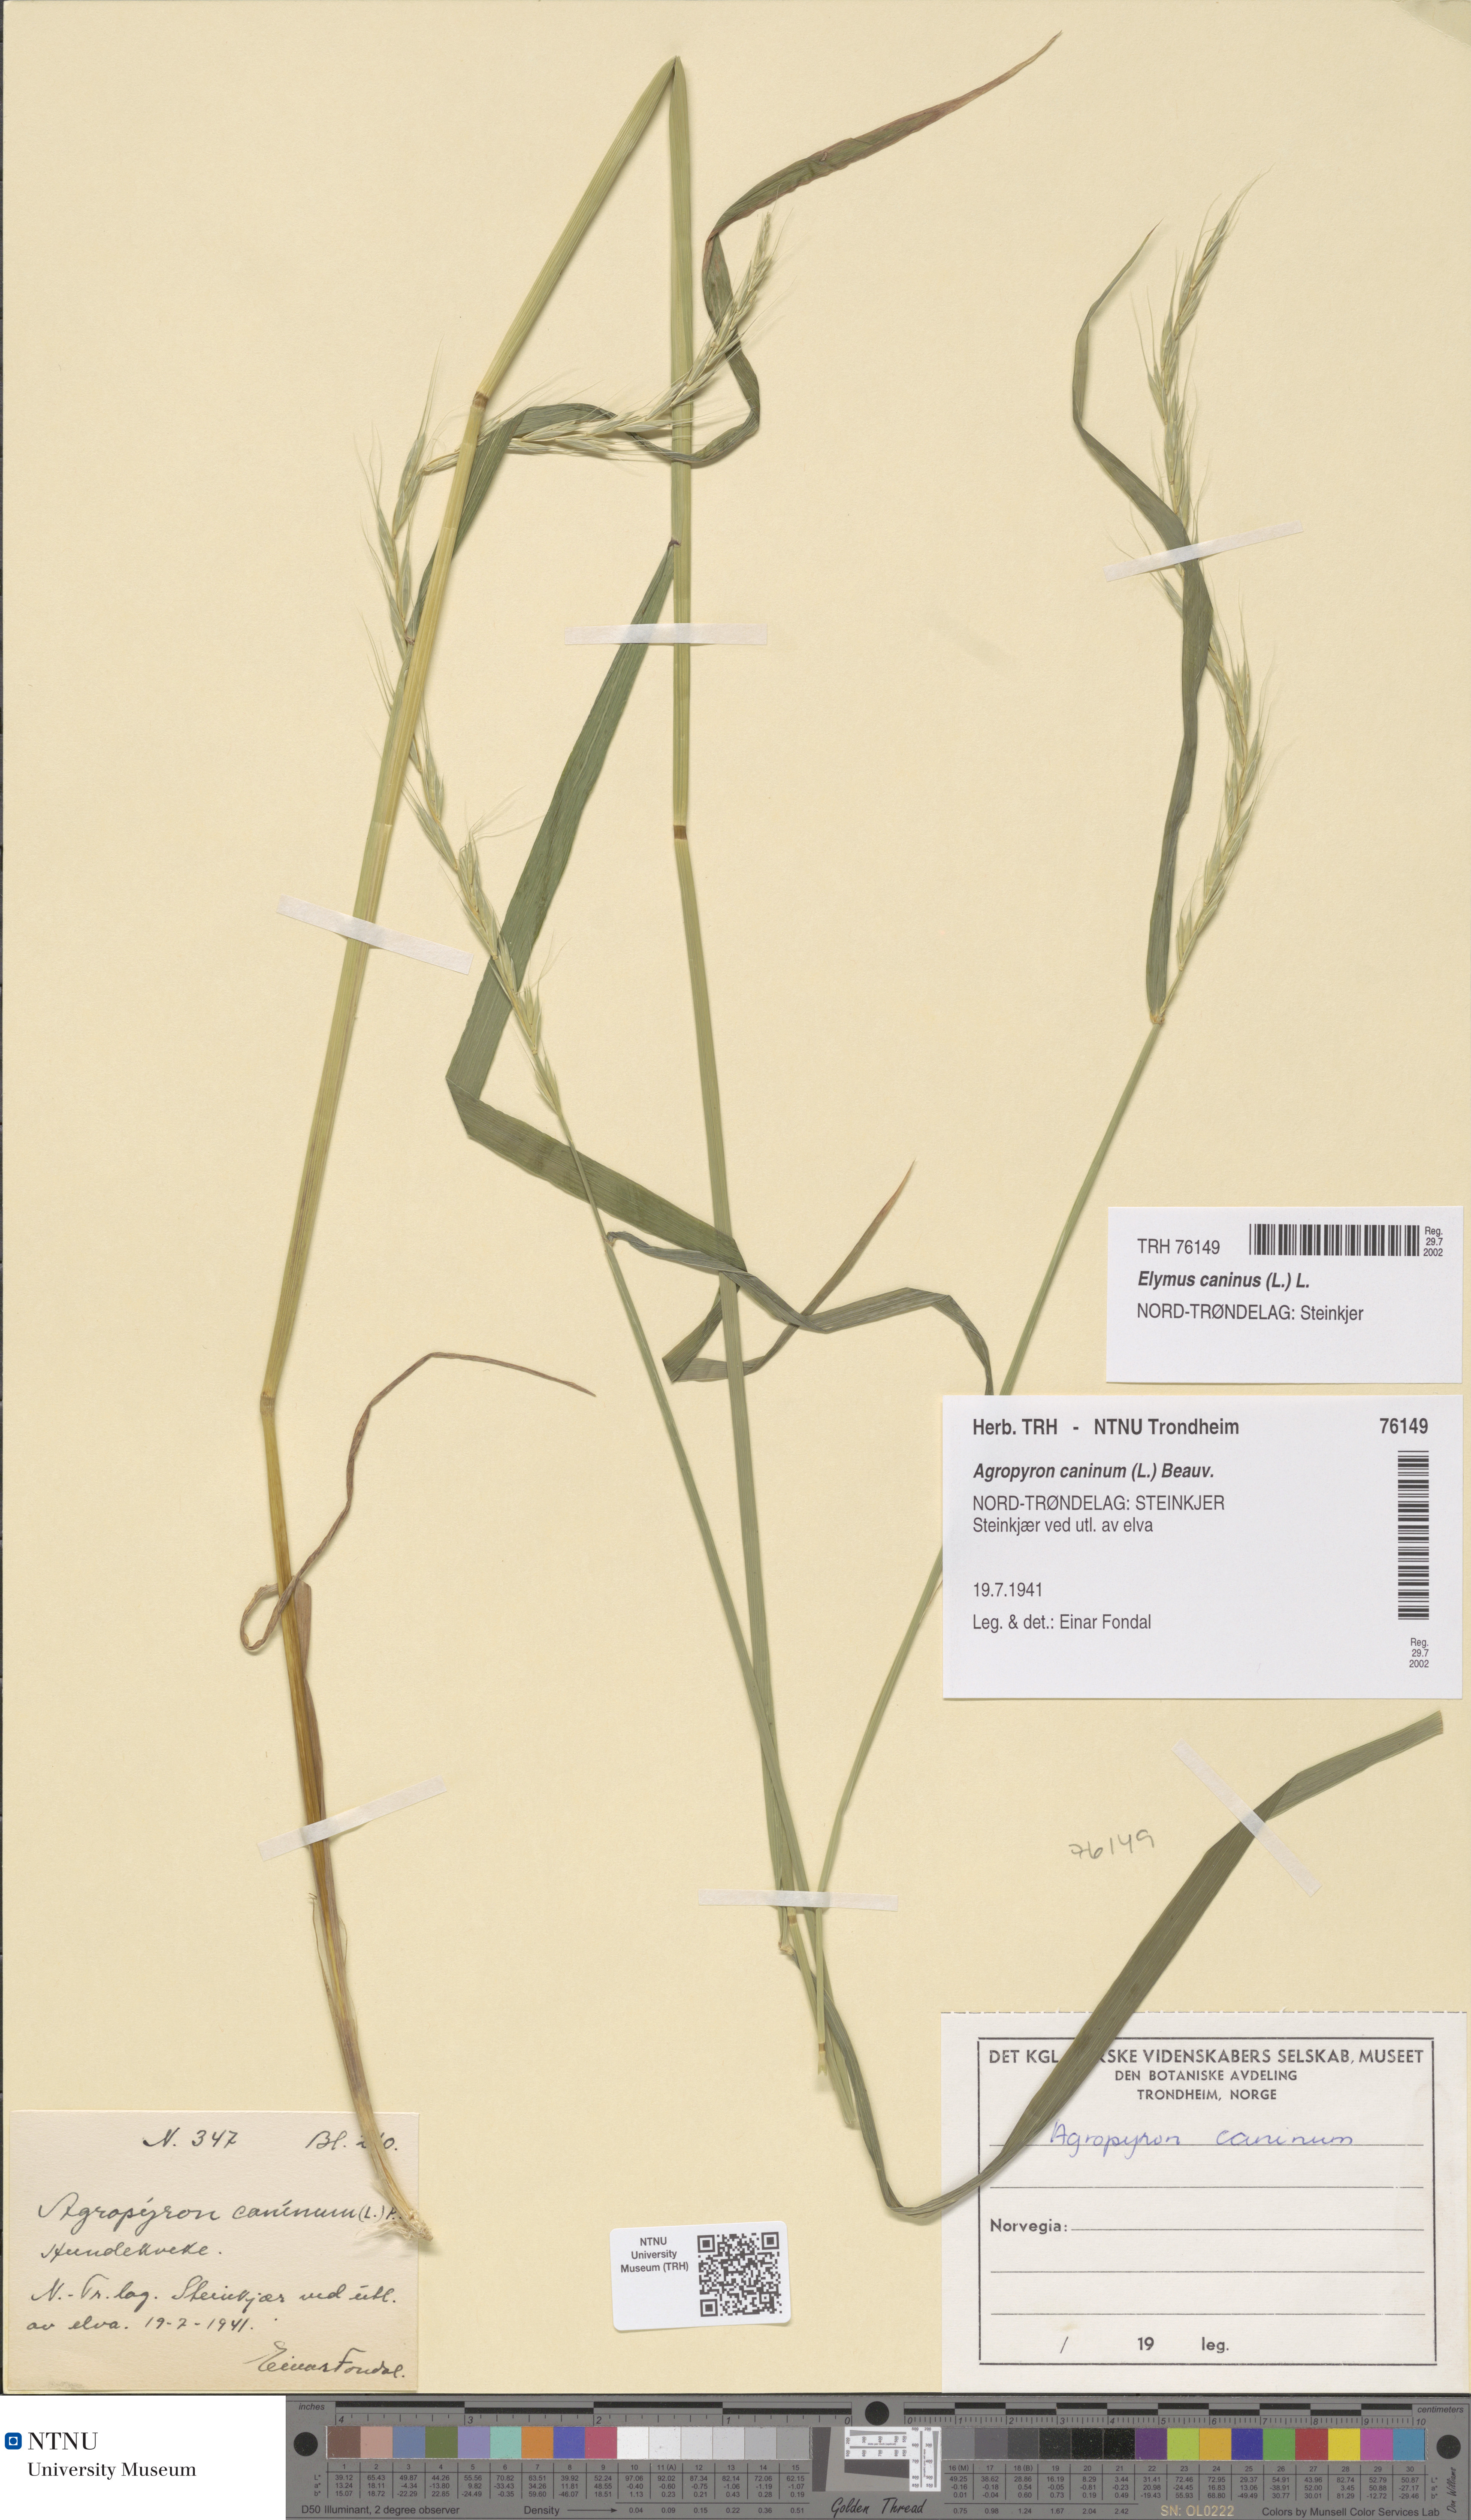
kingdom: Plantae
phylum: Tracheophyta
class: Liliopsida
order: Poales
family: Poaceae
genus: Elymus
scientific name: Elymus caninus
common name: Bearded couch
